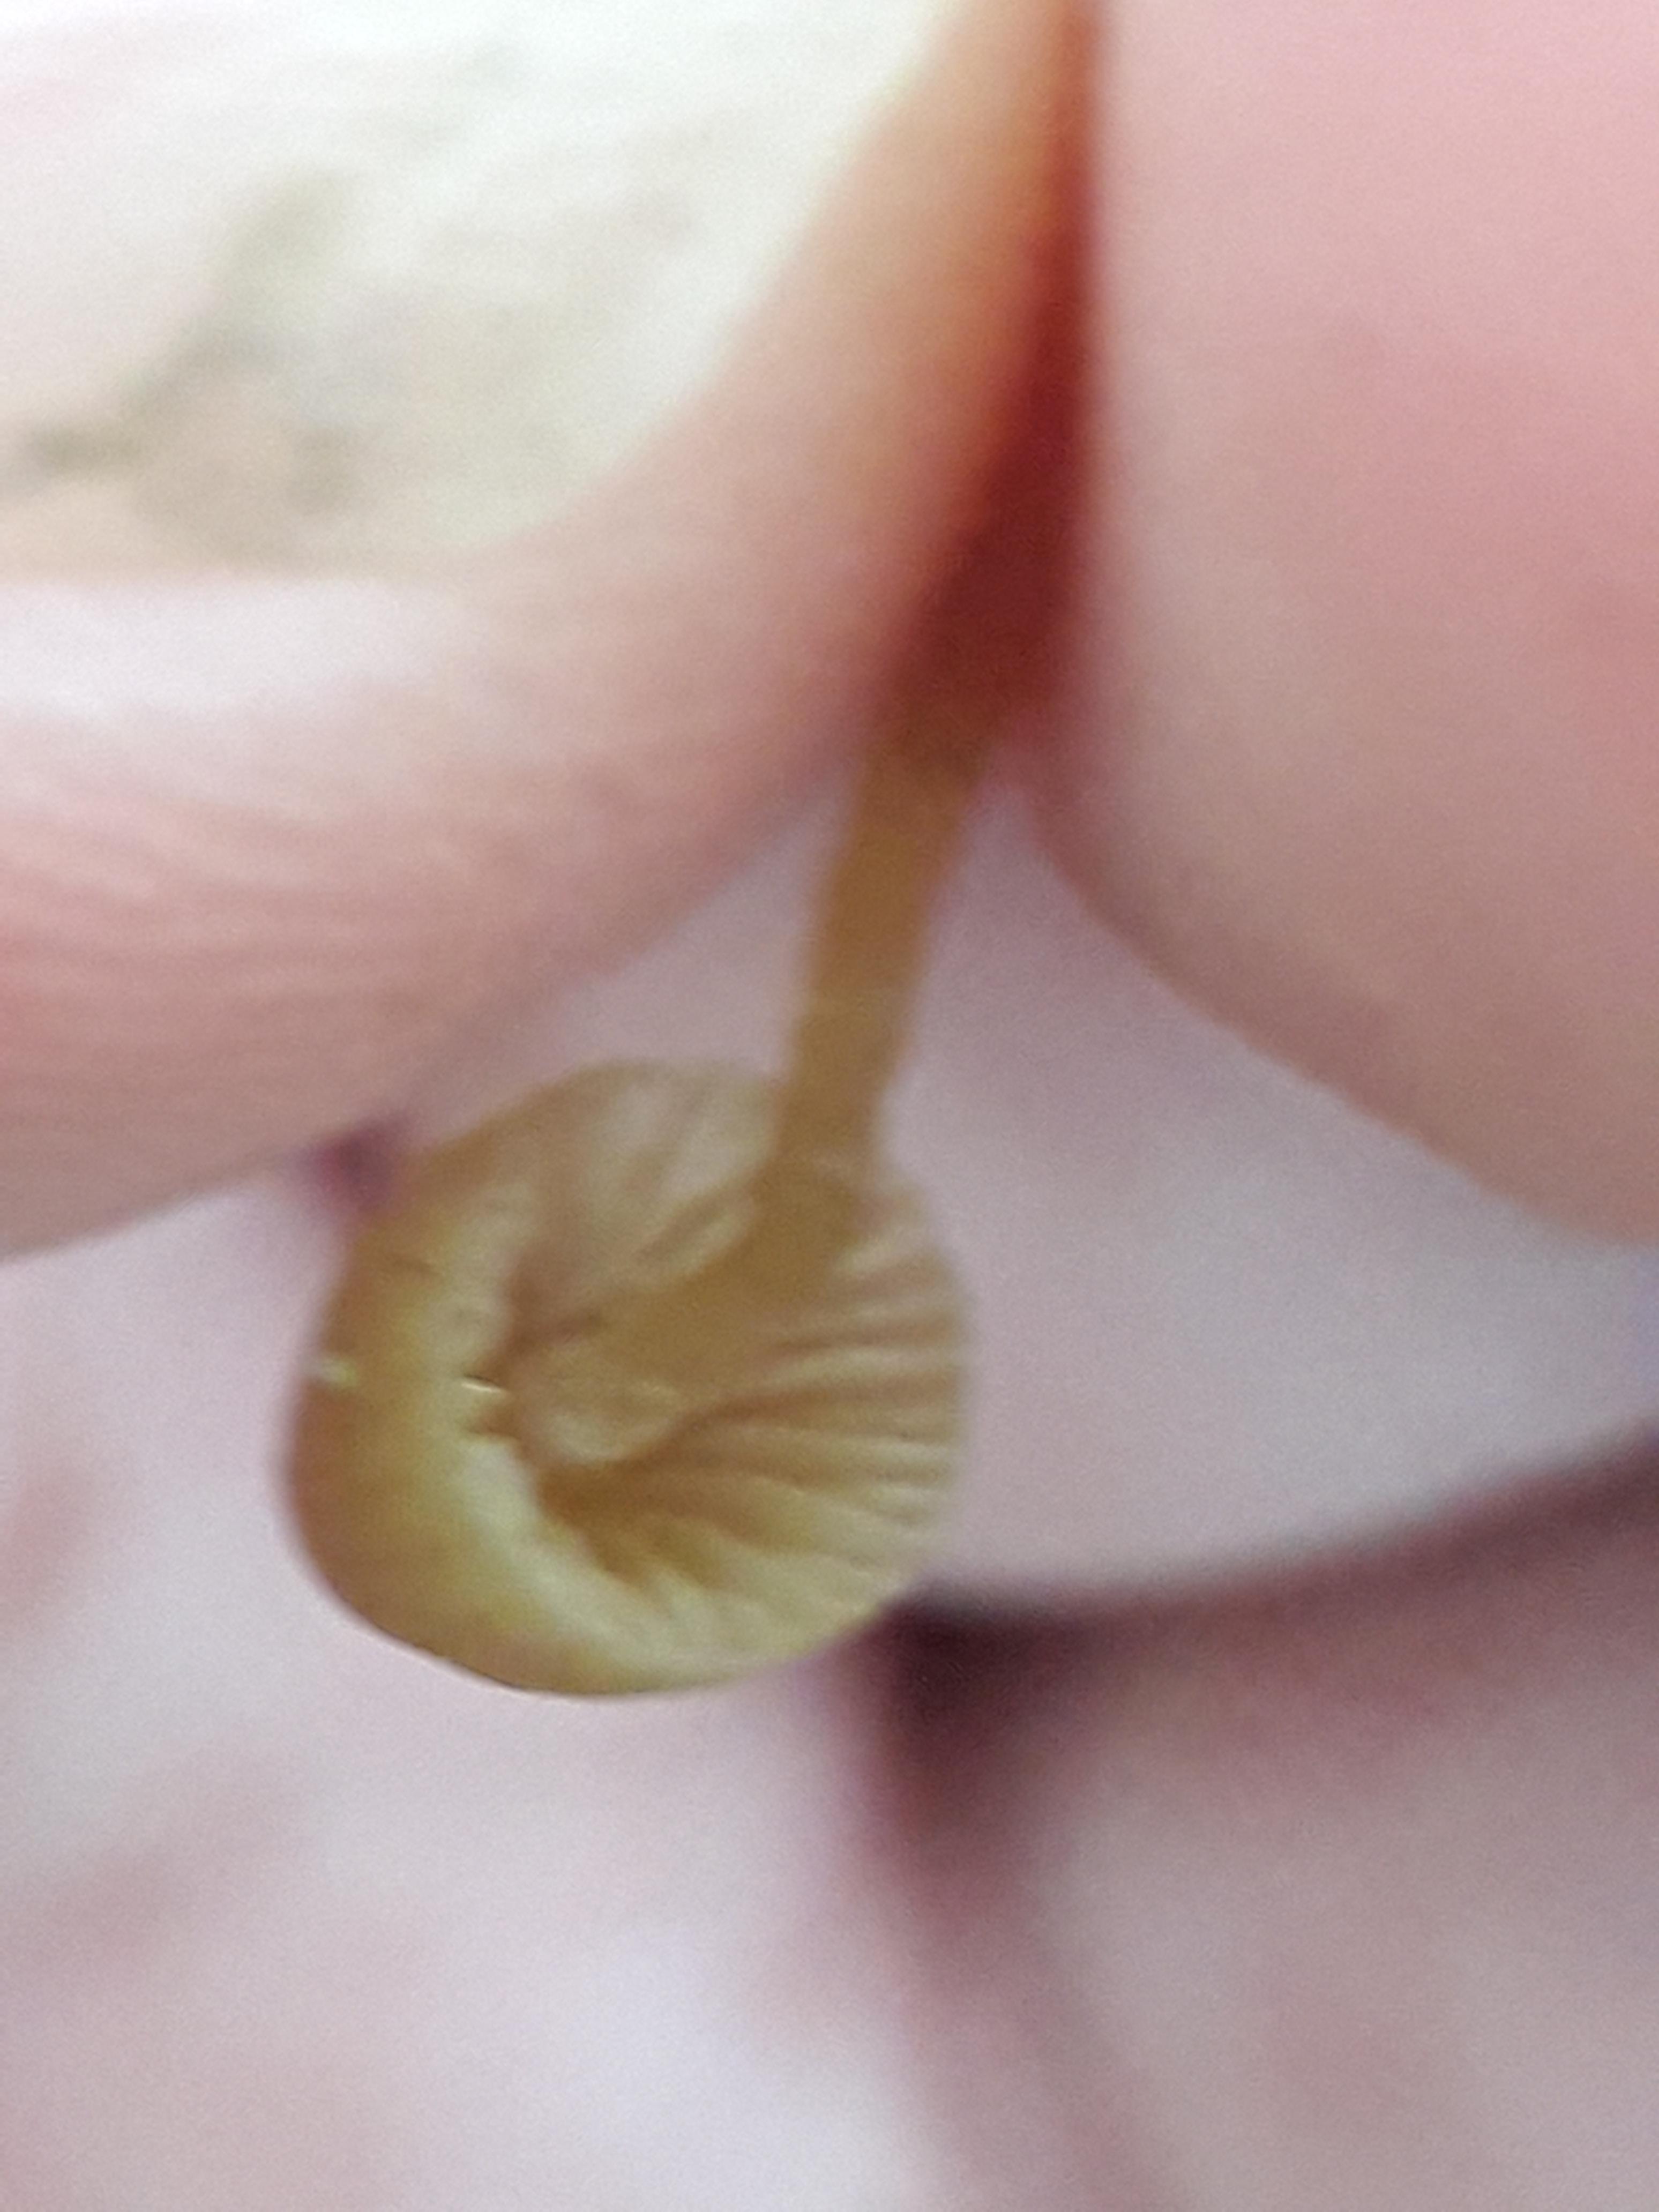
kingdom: Fungi
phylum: Basidiomycota
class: Agaricomycetes
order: Agaricales
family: Mycenaceae
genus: Mycena
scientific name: Mycena galopus
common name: hvidmælket huesvamp
